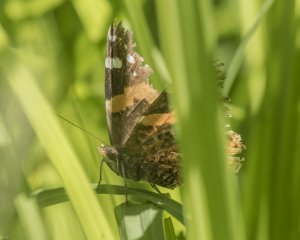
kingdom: Animalia
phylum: Arthropoda
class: Insecta
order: Lepidoptera
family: Nymphalidae
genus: Vanessa
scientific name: Vanessa atalanta
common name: Red Admiral
